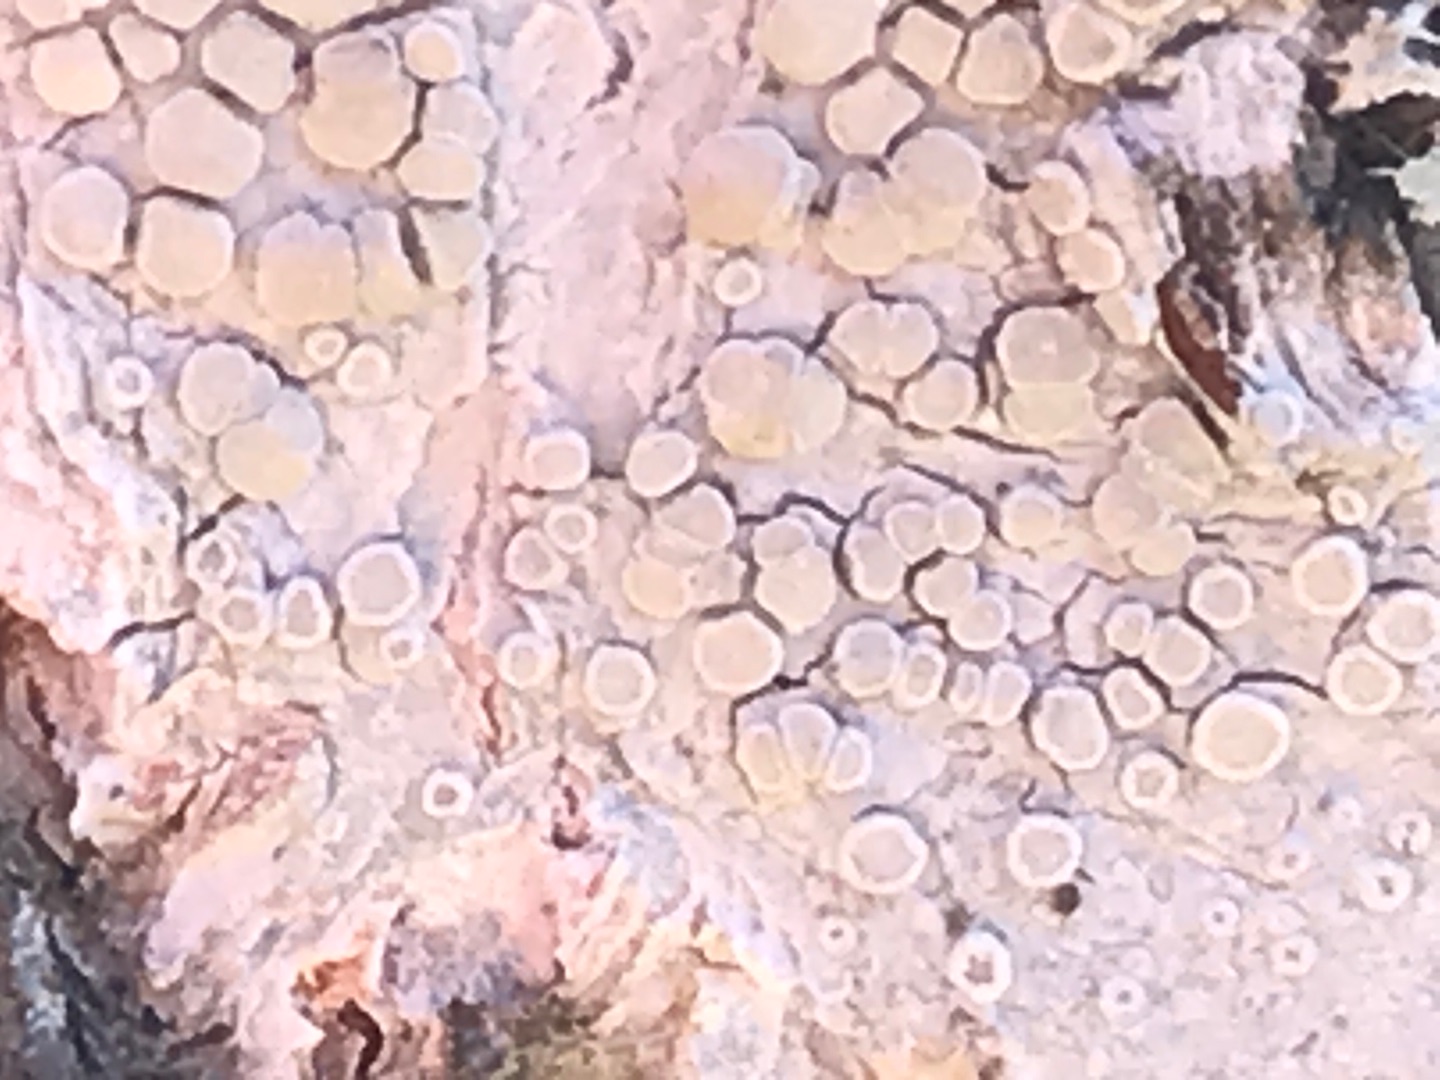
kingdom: Fungi
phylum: Ascomycota
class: Lecanoromycetes
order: Lecanorales
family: Lecanoraceae
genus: Glaucomaria
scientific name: Glaucomaria carpinea
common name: Hviddugget kantskivelav
